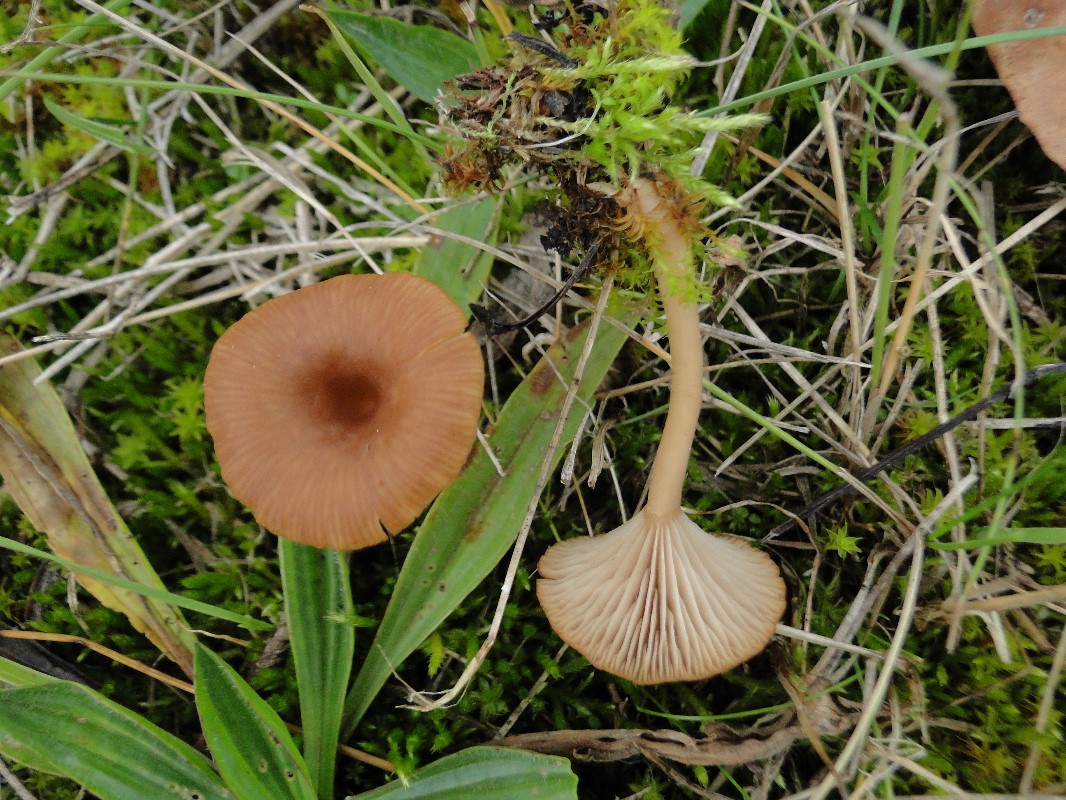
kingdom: Fungi
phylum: Basidiomycota
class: Agaricomycetes
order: Agaricales
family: Tricholomataceae
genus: Omphalina
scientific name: Omphalina pyxidata
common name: rødbrun navlehat
